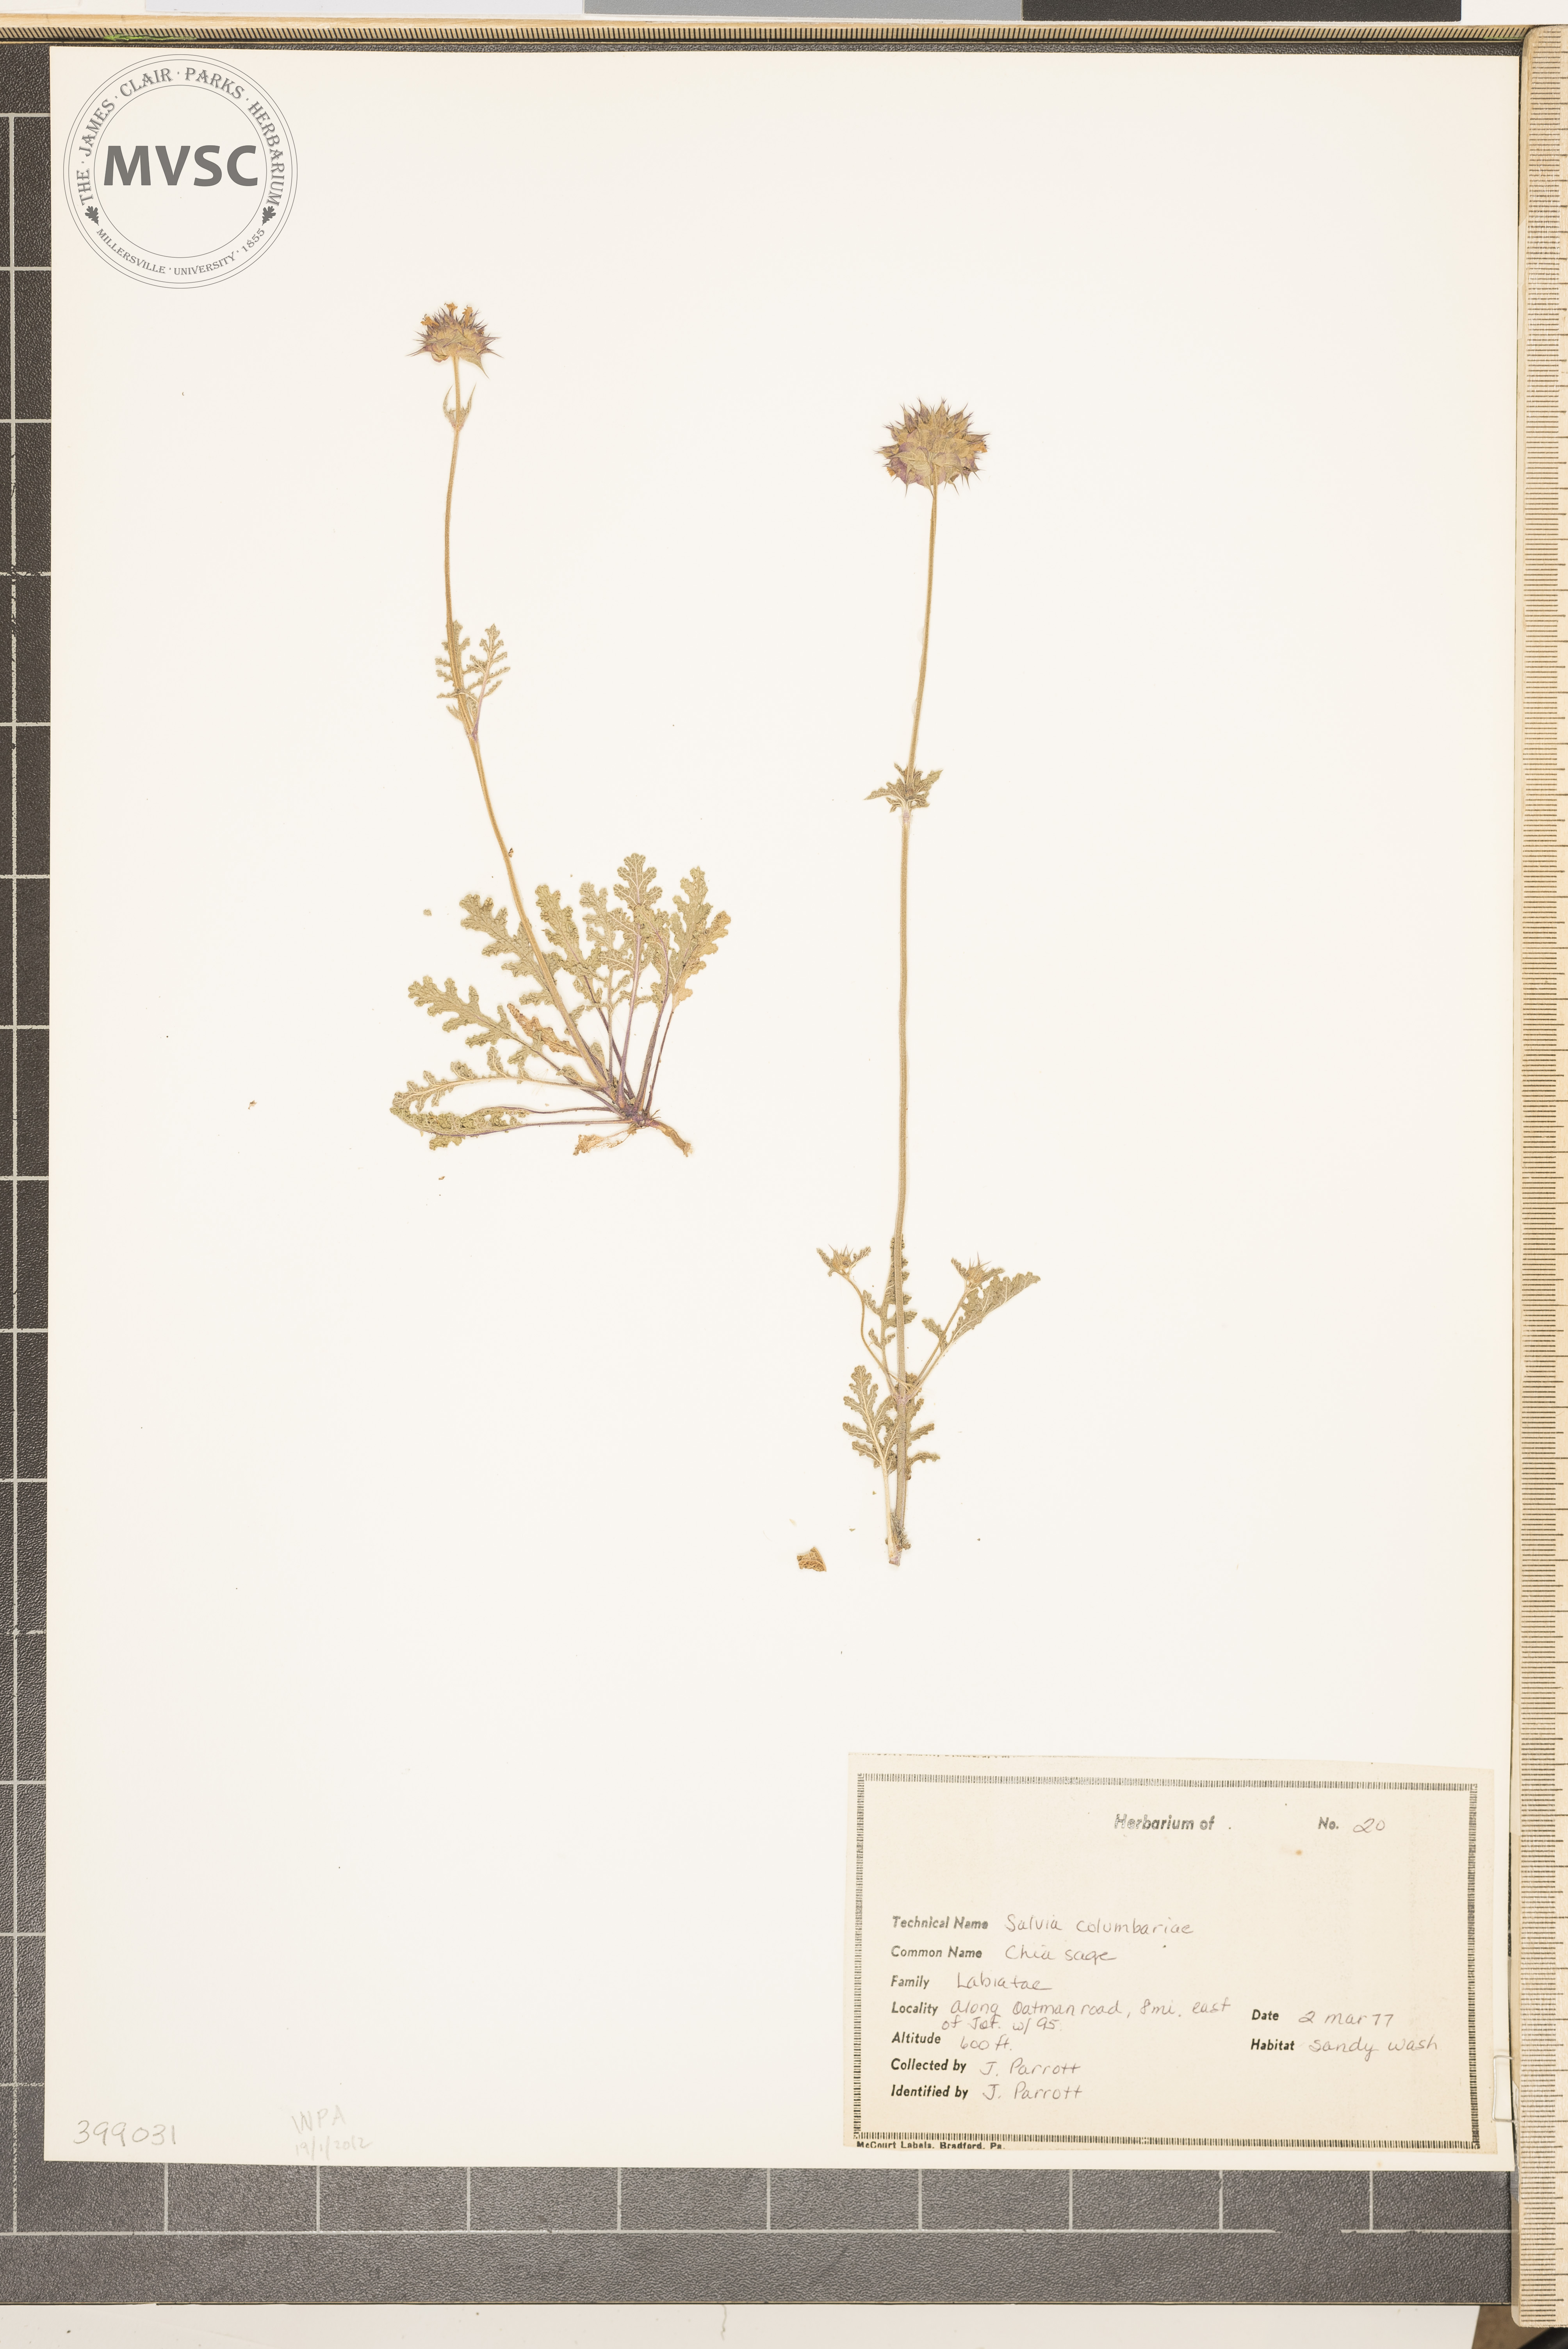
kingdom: Plantae
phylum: Tracheophyta
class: Magnoliopsida
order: Lamiales
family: Lamiaceae
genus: Salvia
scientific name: Salvia columbariae
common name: Russian-thistle
